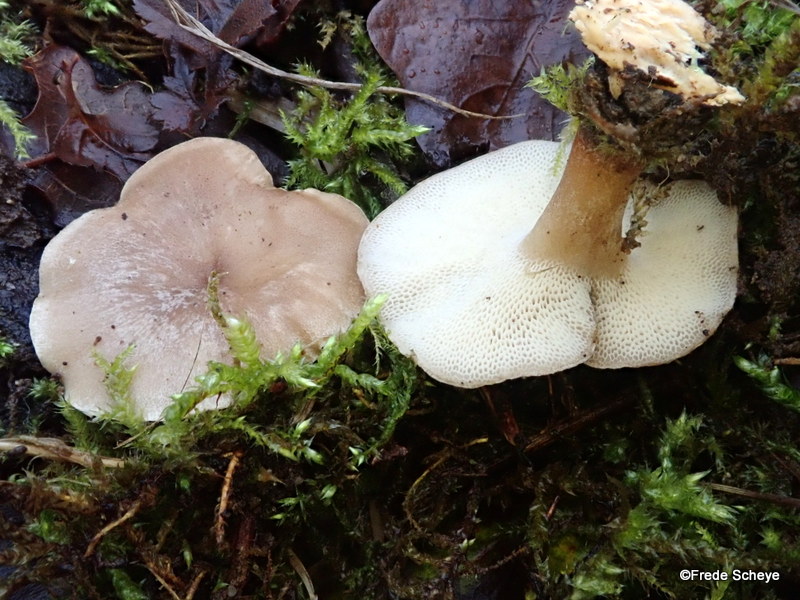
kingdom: Fungi
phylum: Basidiomycota
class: Agaricomycetes
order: Polyporales
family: Polyporaceae
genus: Lentinus
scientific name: Lentinus brumalis
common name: vinter-stilkporesvamp
